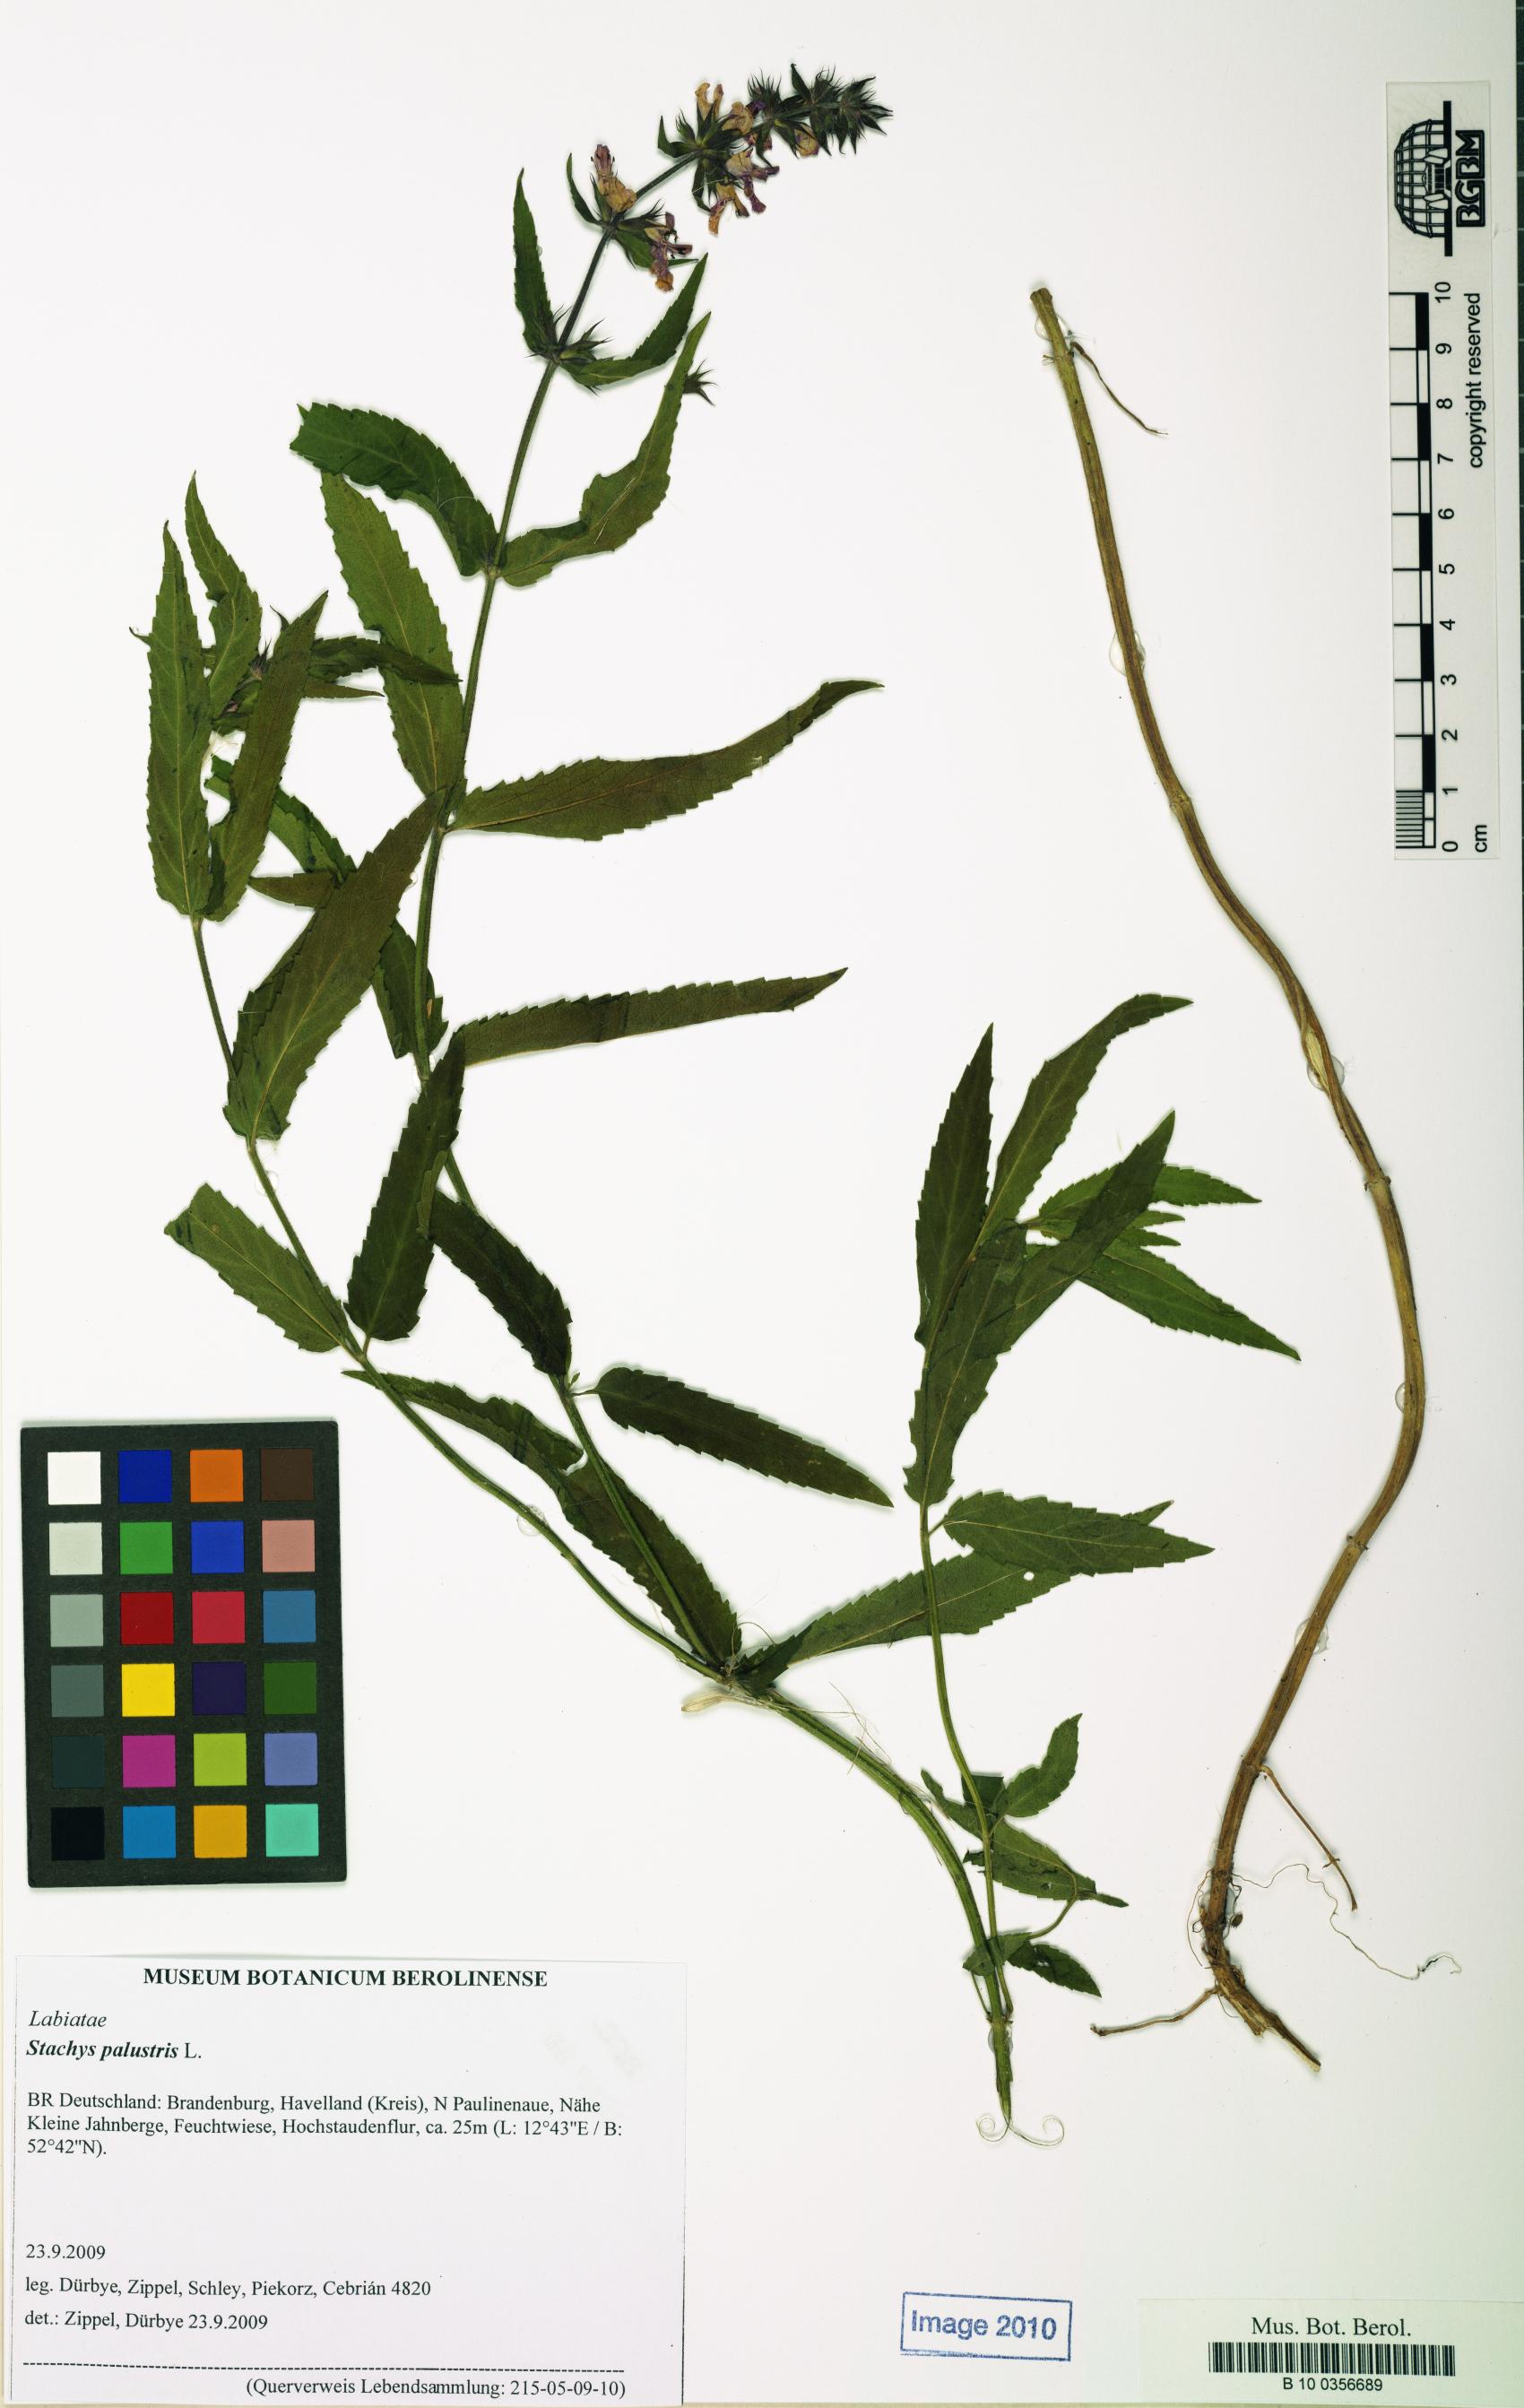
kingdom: Plantae
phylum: Tracheophyta
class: Magnoliopsida
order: Lamiales
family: Lamiaceae
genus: Stachys
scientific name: Stachys palustris
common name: Marsh woundwort
